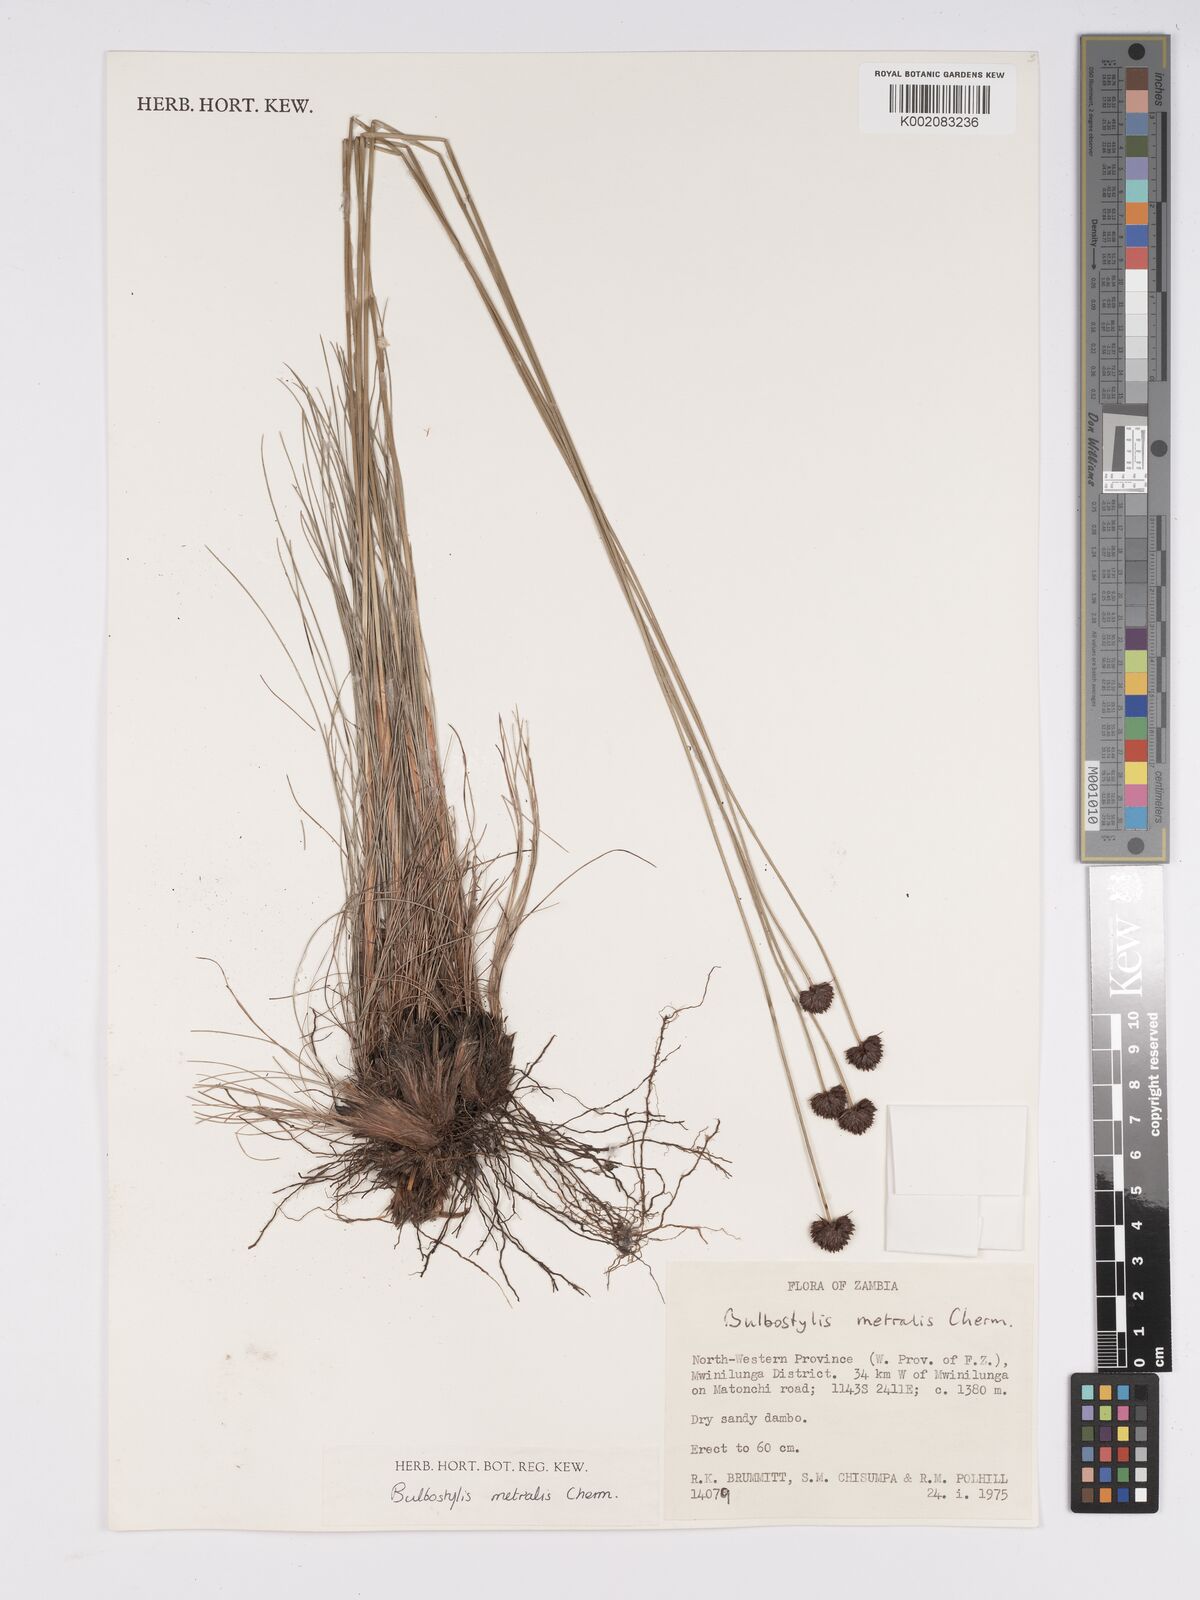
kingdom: Plantae
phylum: Tracheophyta
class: Liliopsida
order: Poales
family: Cyperaceae
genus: Bulbostylis
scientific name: Bulbostylis filamentosa
